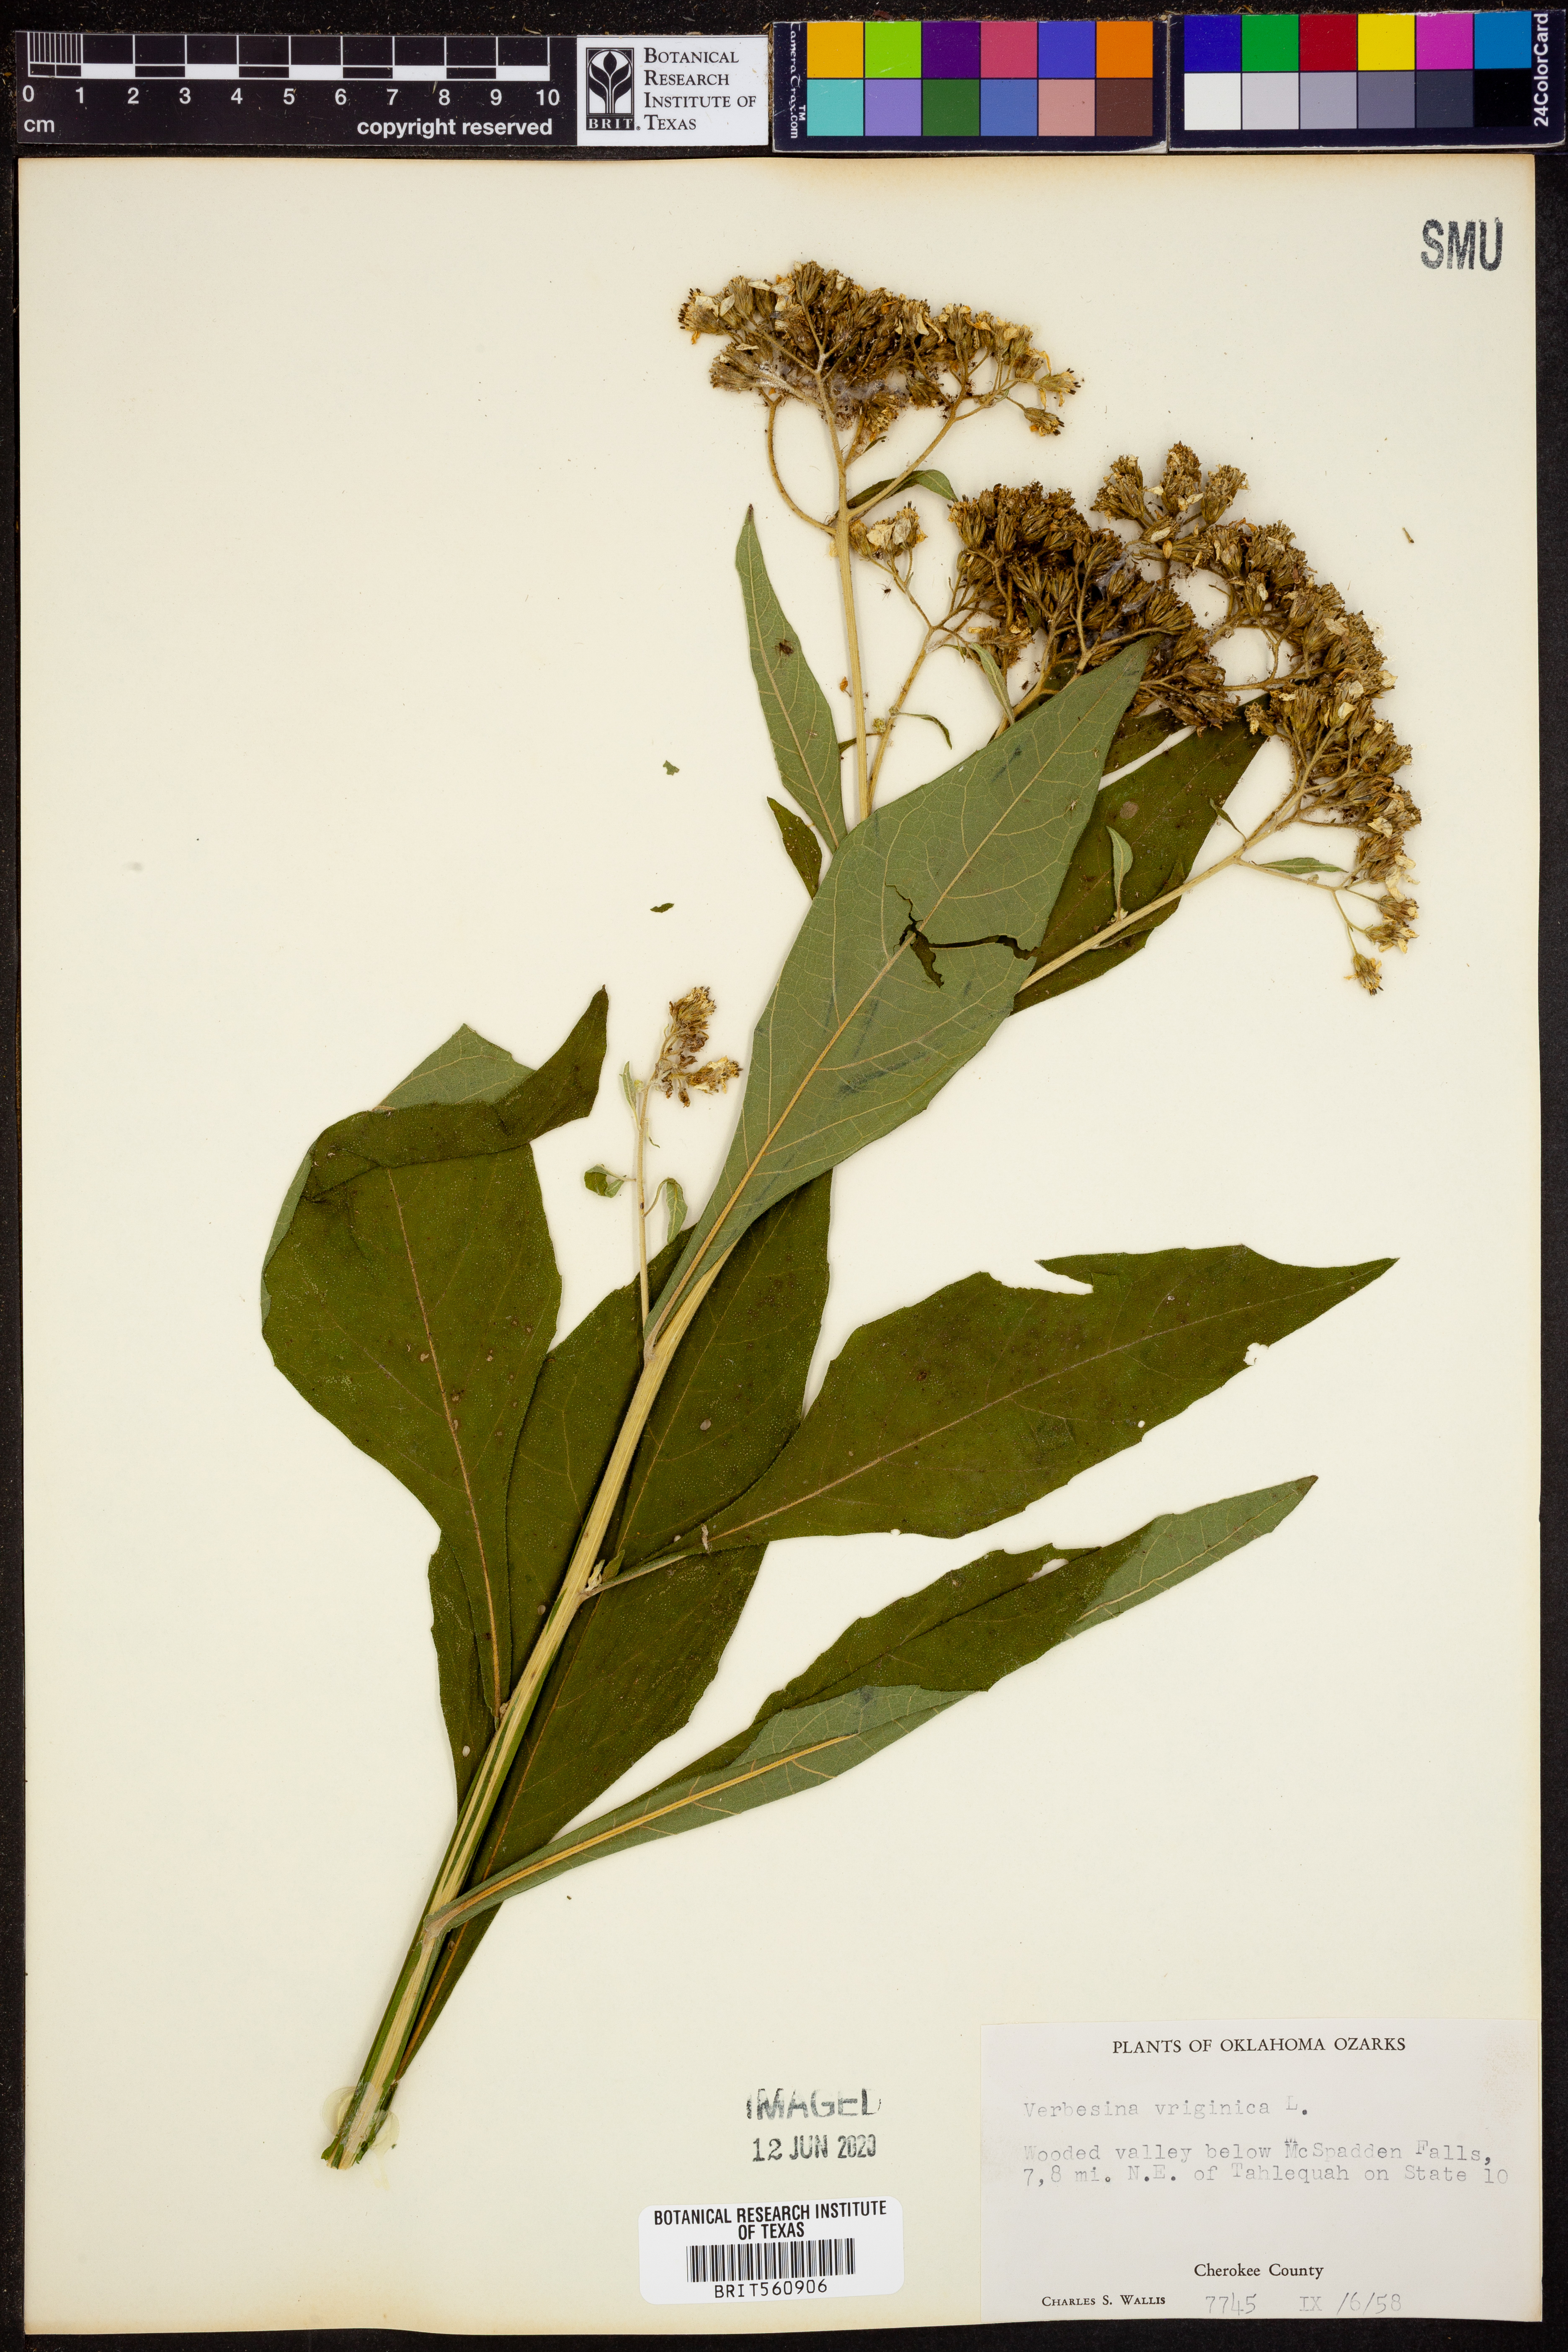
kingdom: Plantae
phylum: Tracheophyta
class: Magnoliopsida
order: Asterales
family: Asteraceae
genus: Verbesina
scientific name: Verbesina virginica
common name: Frostweed
